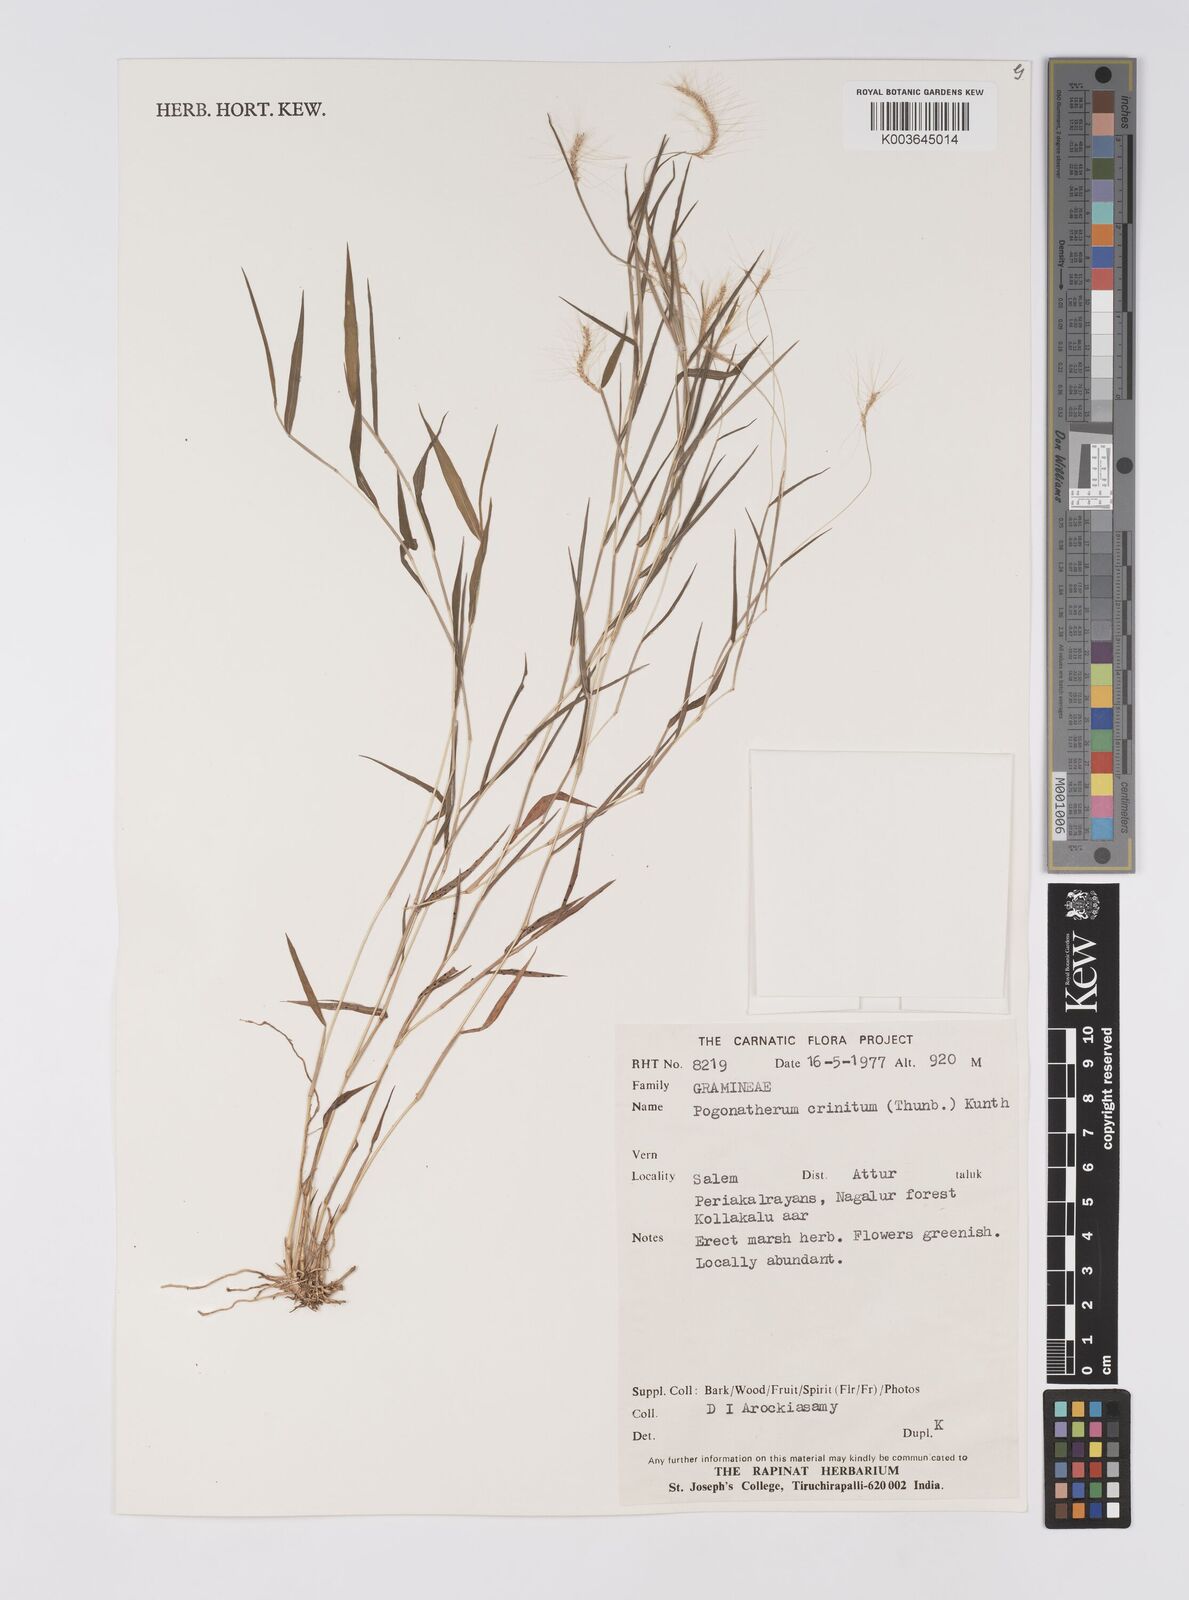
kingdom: Plantae
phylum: Tracheophyta
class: Liliopsida
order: Poales
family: Poaceae
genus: Pogonatherum
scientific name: Pogonatherum crinitum
